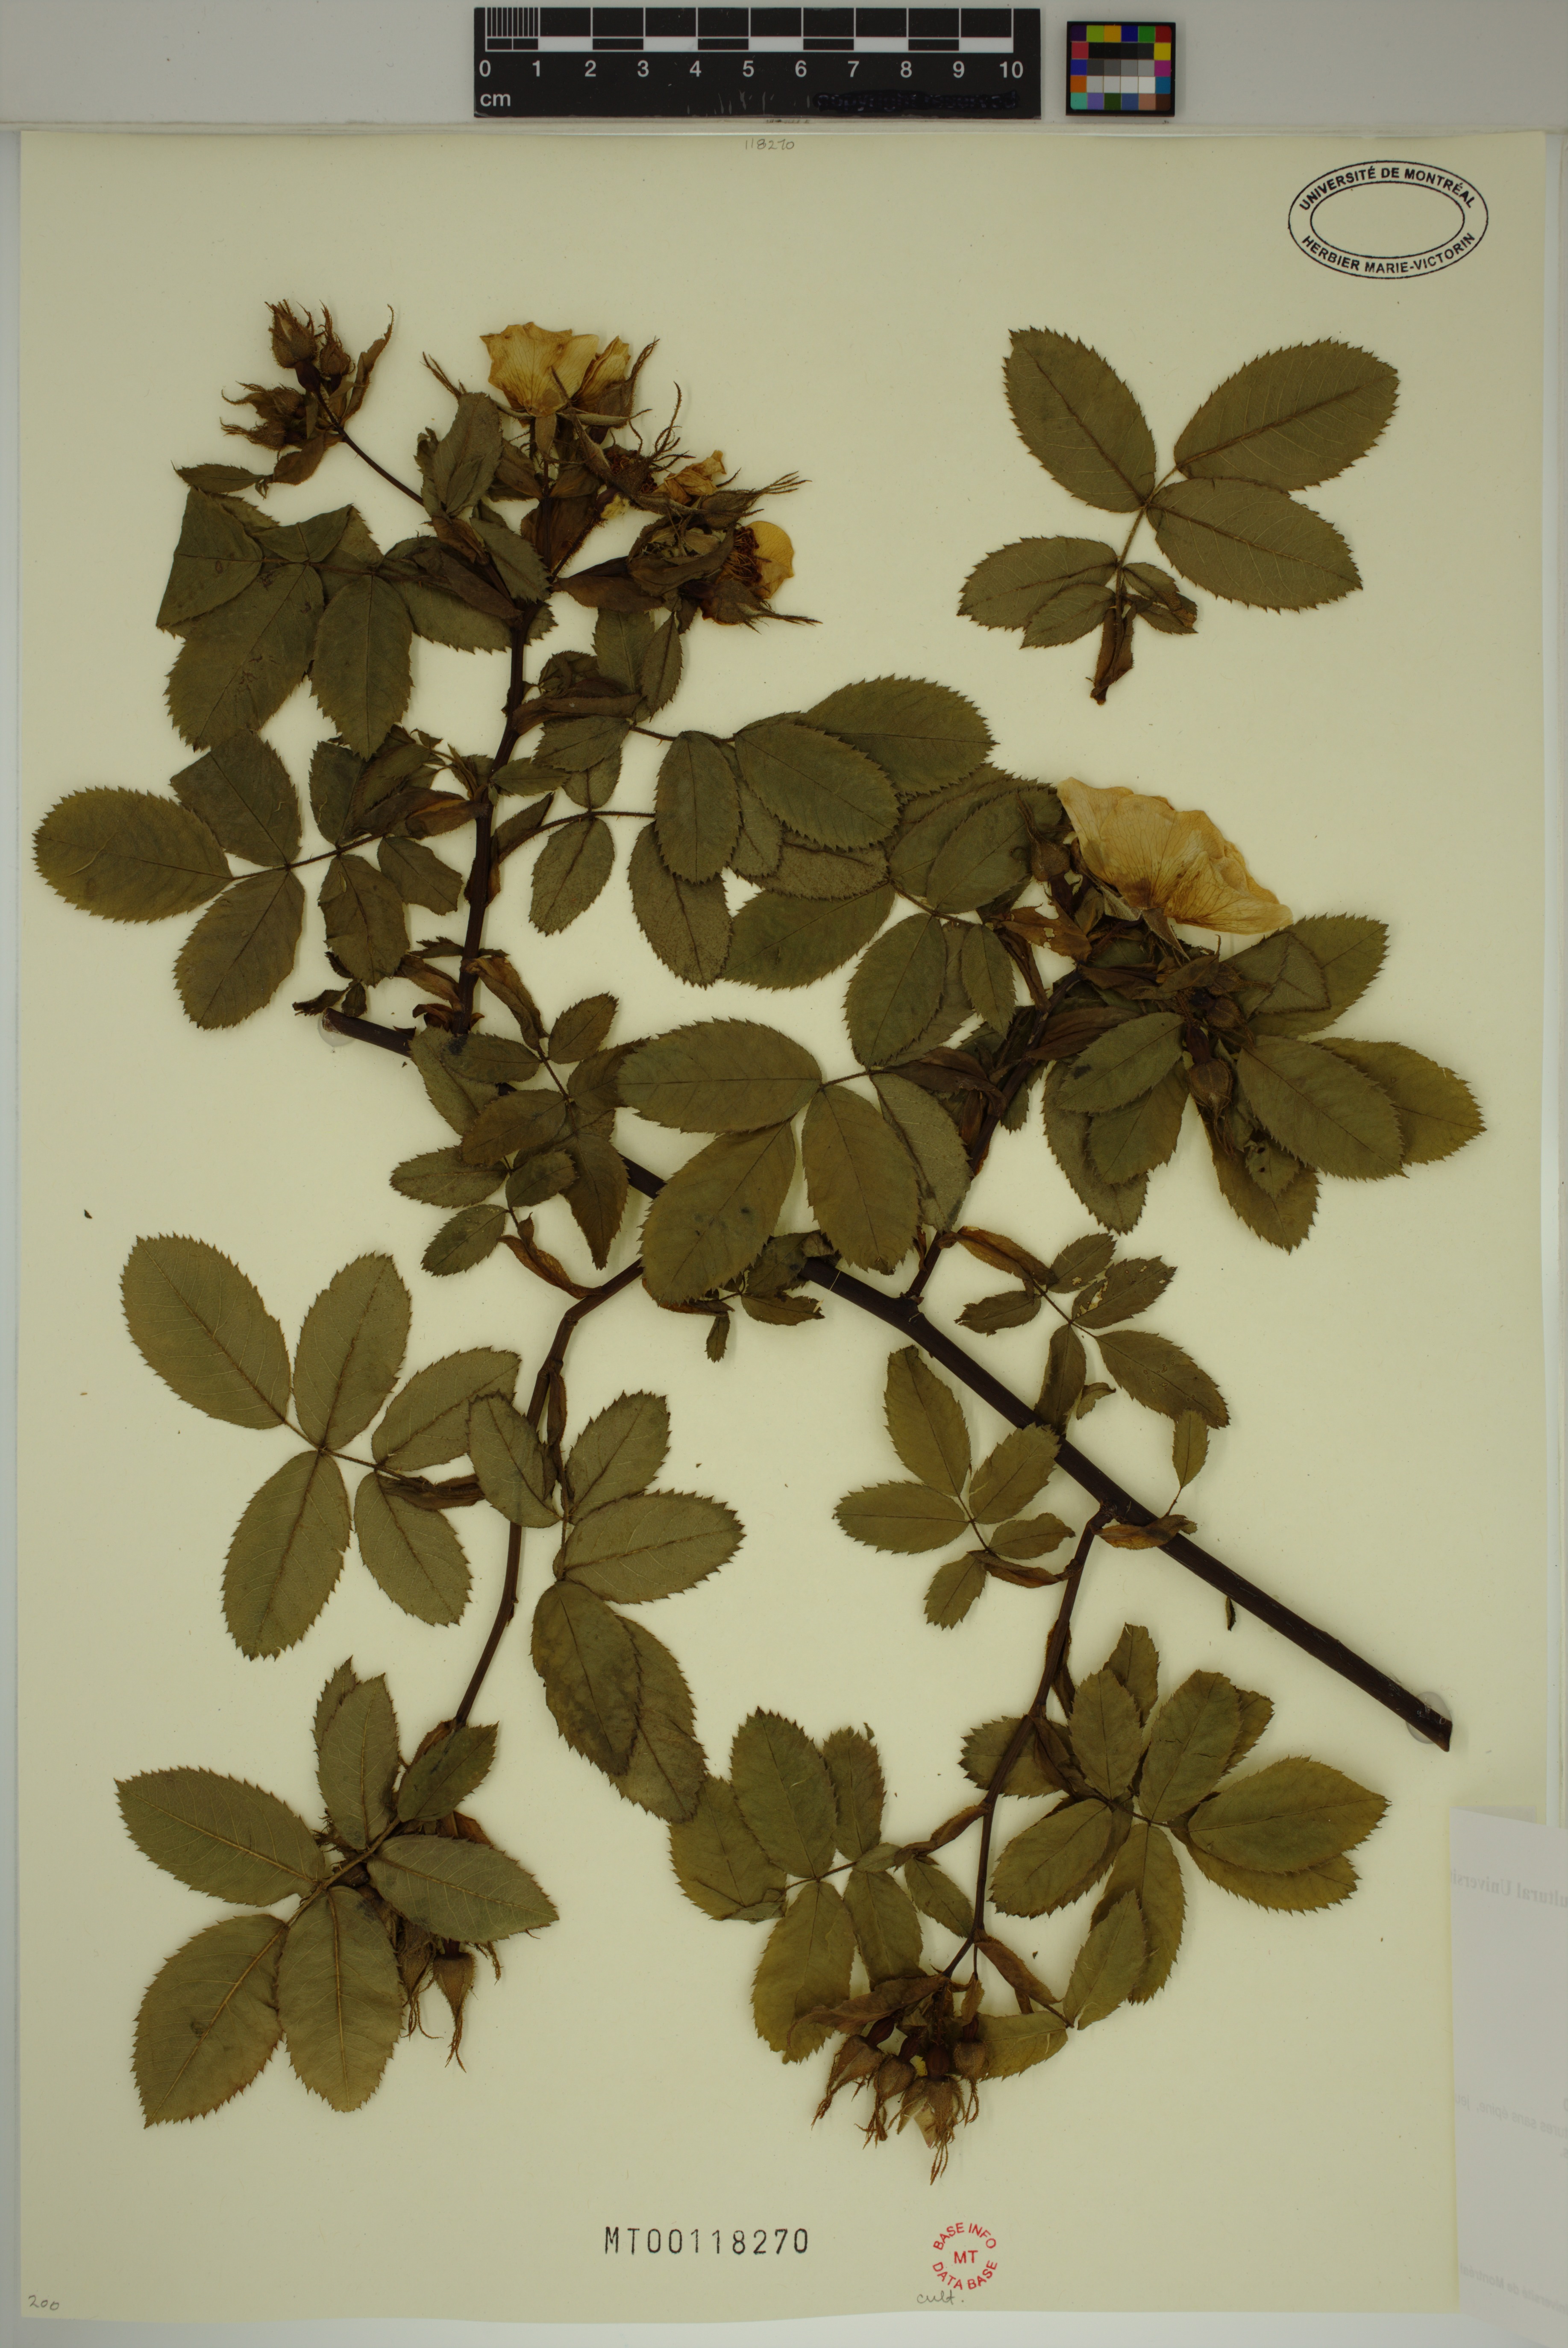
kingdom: Plantae
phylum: Tracheophyta
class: Magnoliopsida
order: Rosales
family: Rosaceae
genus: Rosa
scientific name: Rosa marginata
